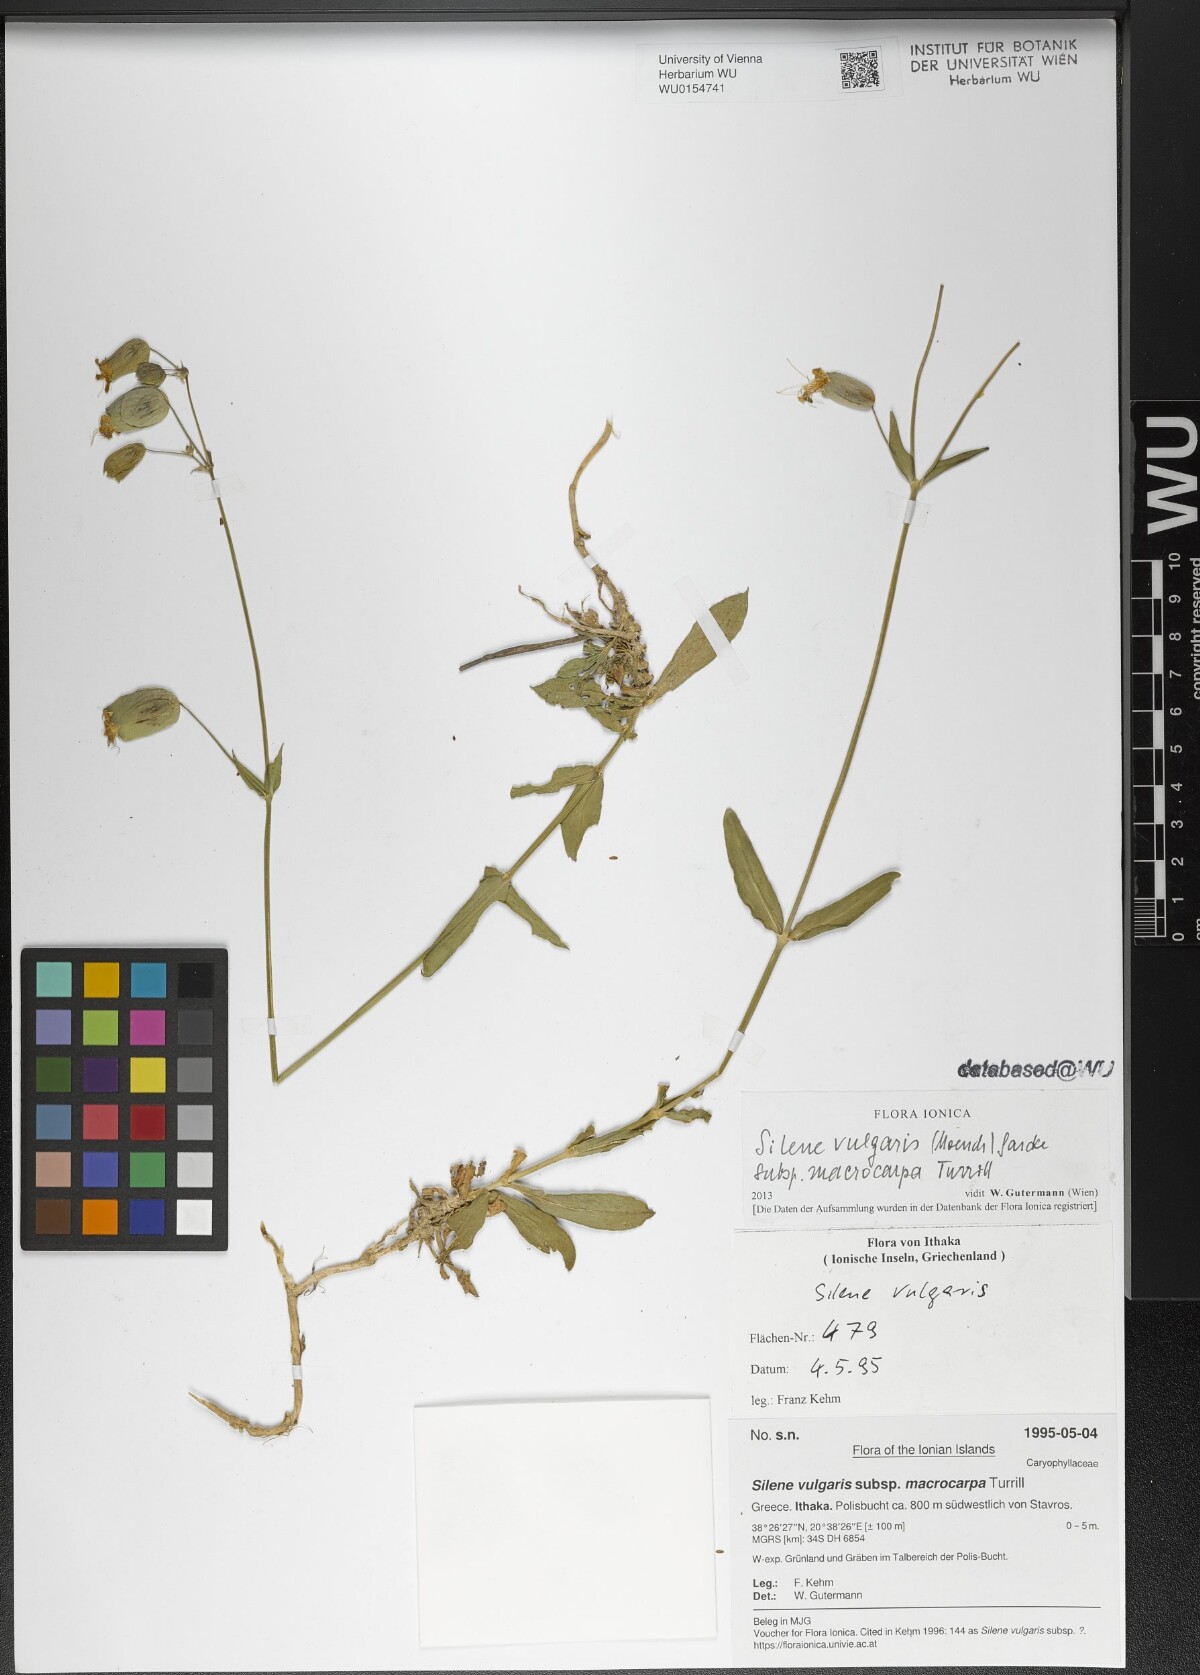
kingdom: Plantae
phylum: Tracheophyta
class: Magnoliopsida
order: Caryophyllales
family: Caryophyllaceae
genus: Silene
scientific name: Silene vulgaris
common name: Bladder campion
